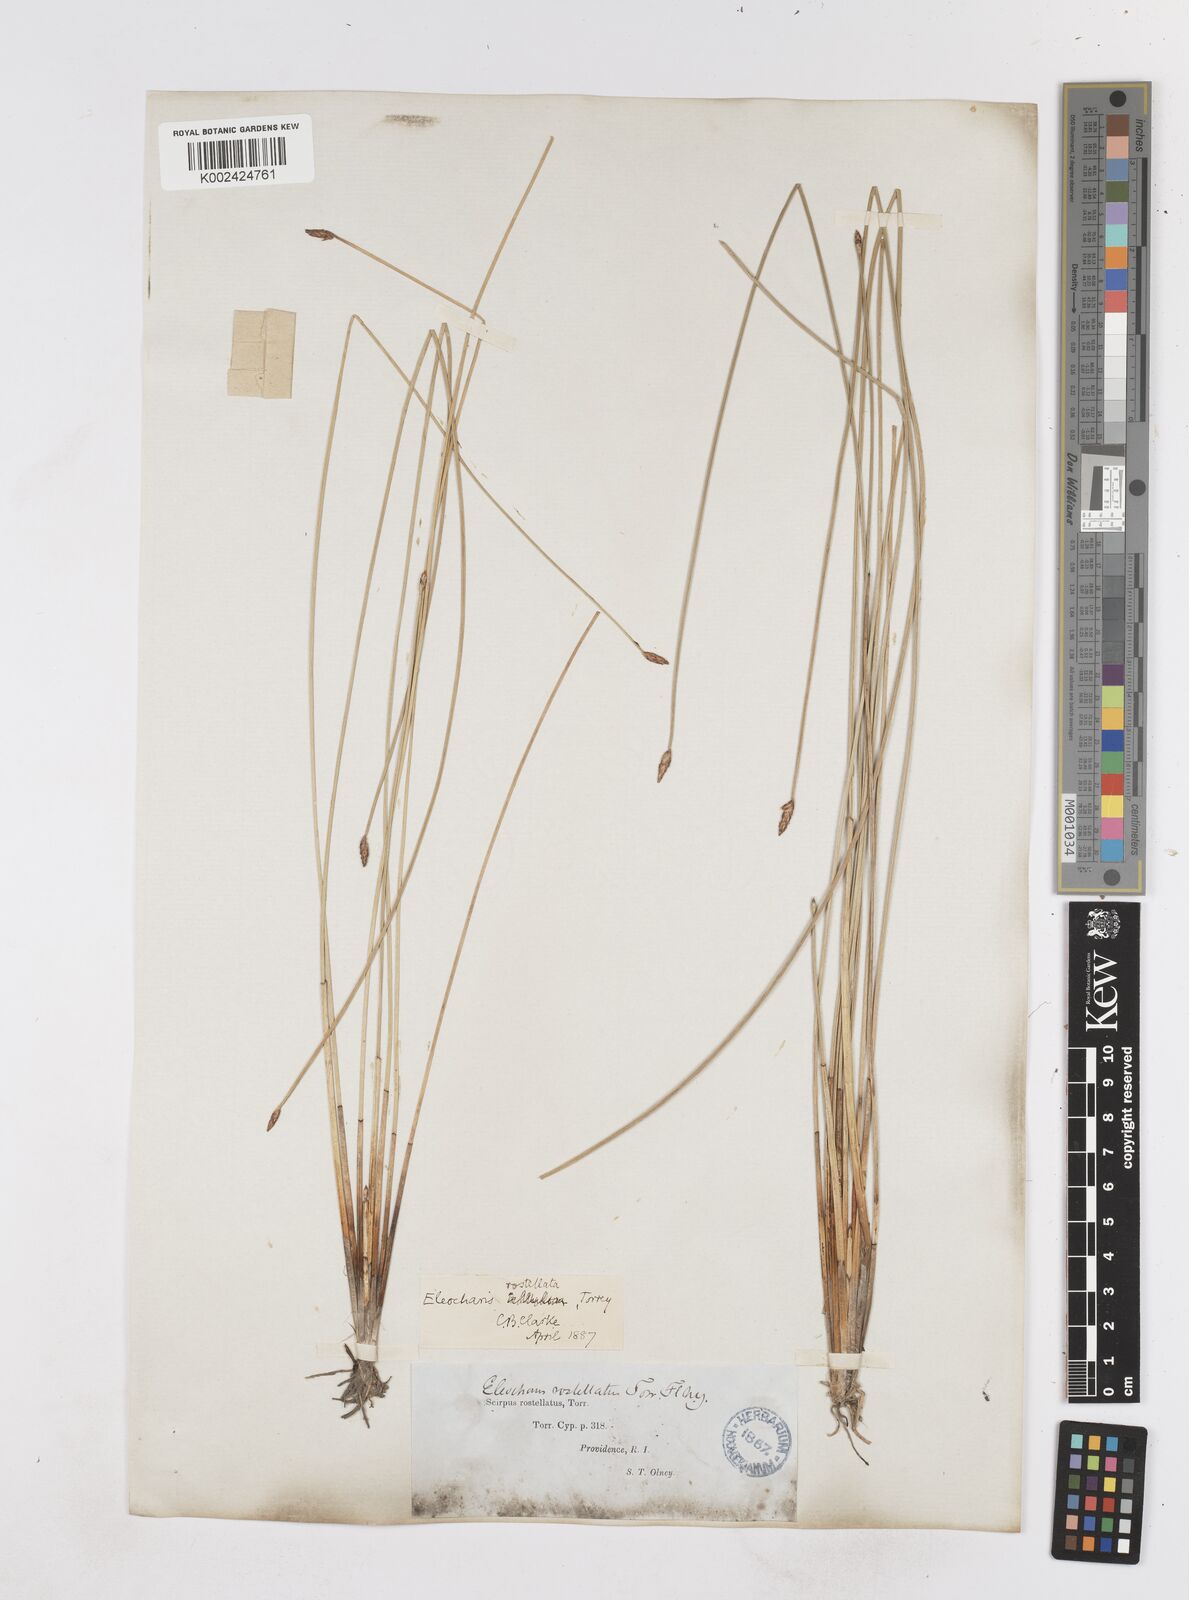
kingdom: Plantae
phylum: Tracheophyta
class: Liliopsida
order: Poales
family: Cyperaceae
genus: Eleocharis
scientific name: Eleocharis rostellata
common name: Walking sedge
